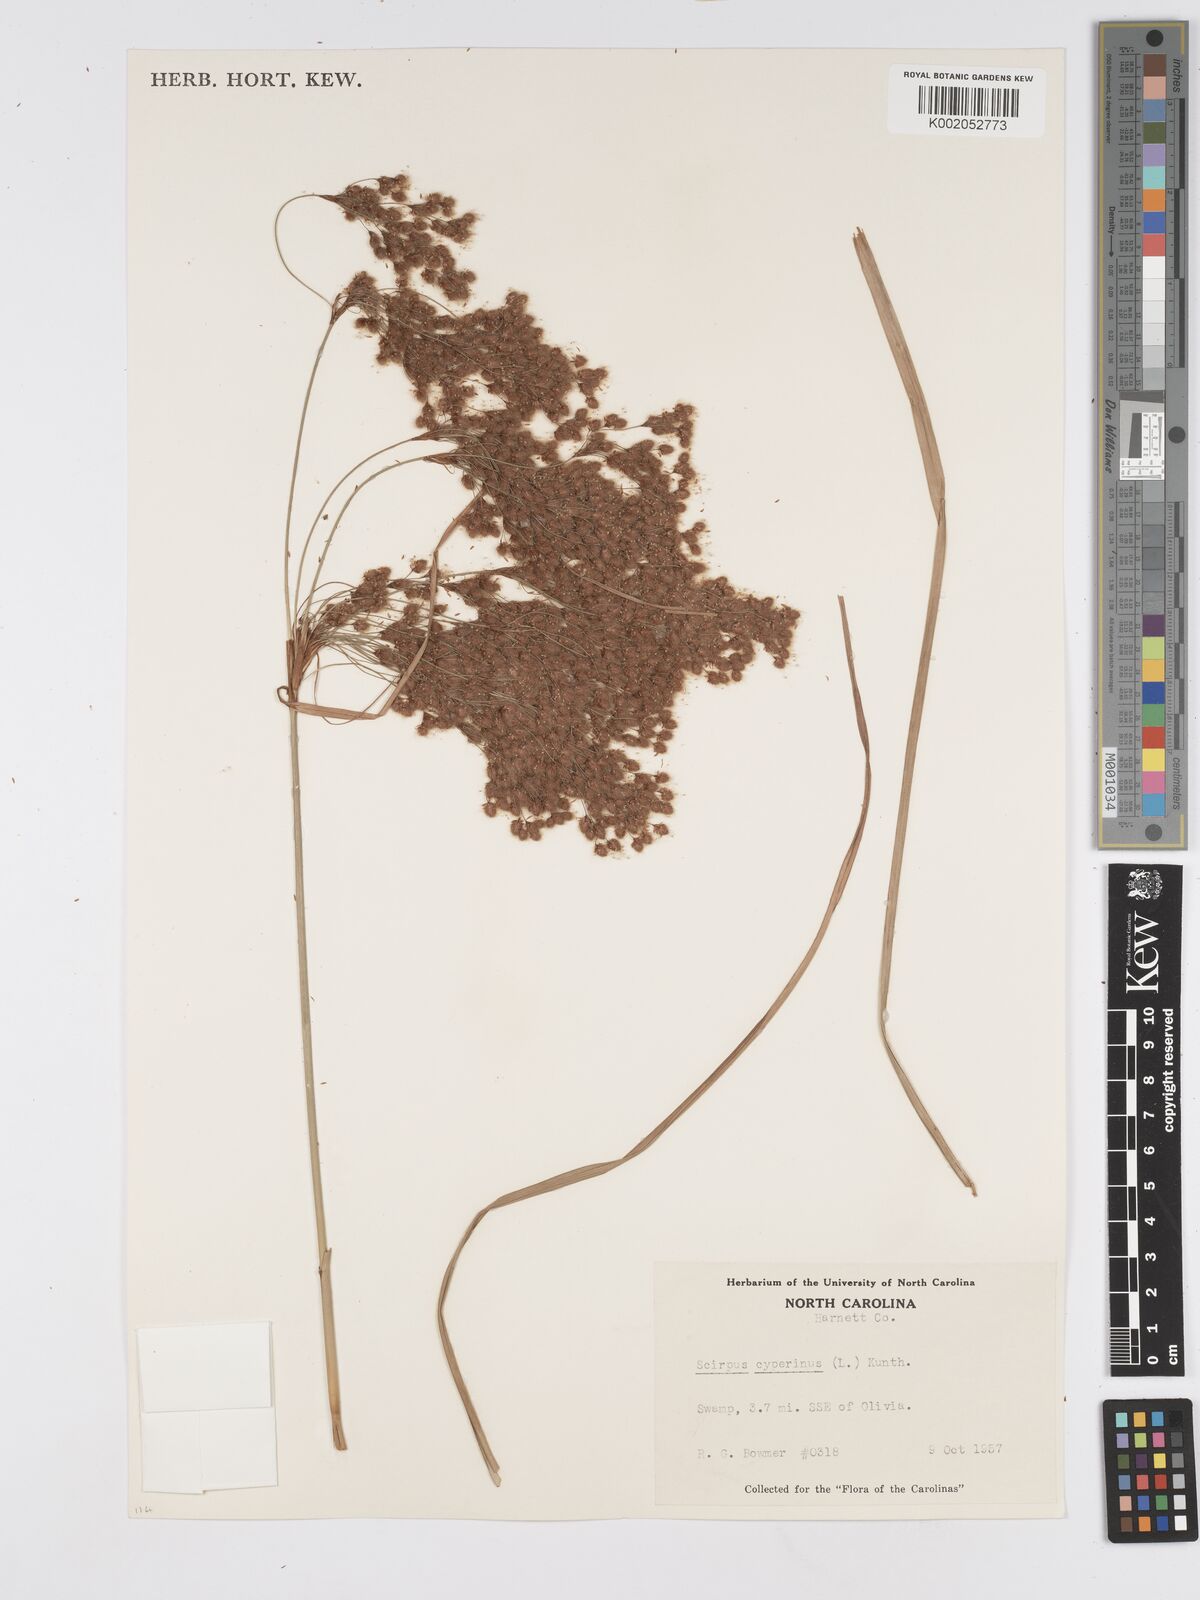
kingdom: Plantae
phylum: Tracheophyta
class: Liliopsida
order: Poales
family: Cyperaceae
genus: Scirpus
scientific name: Scirpus cyperinus
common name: Black-sheathed bulrush
